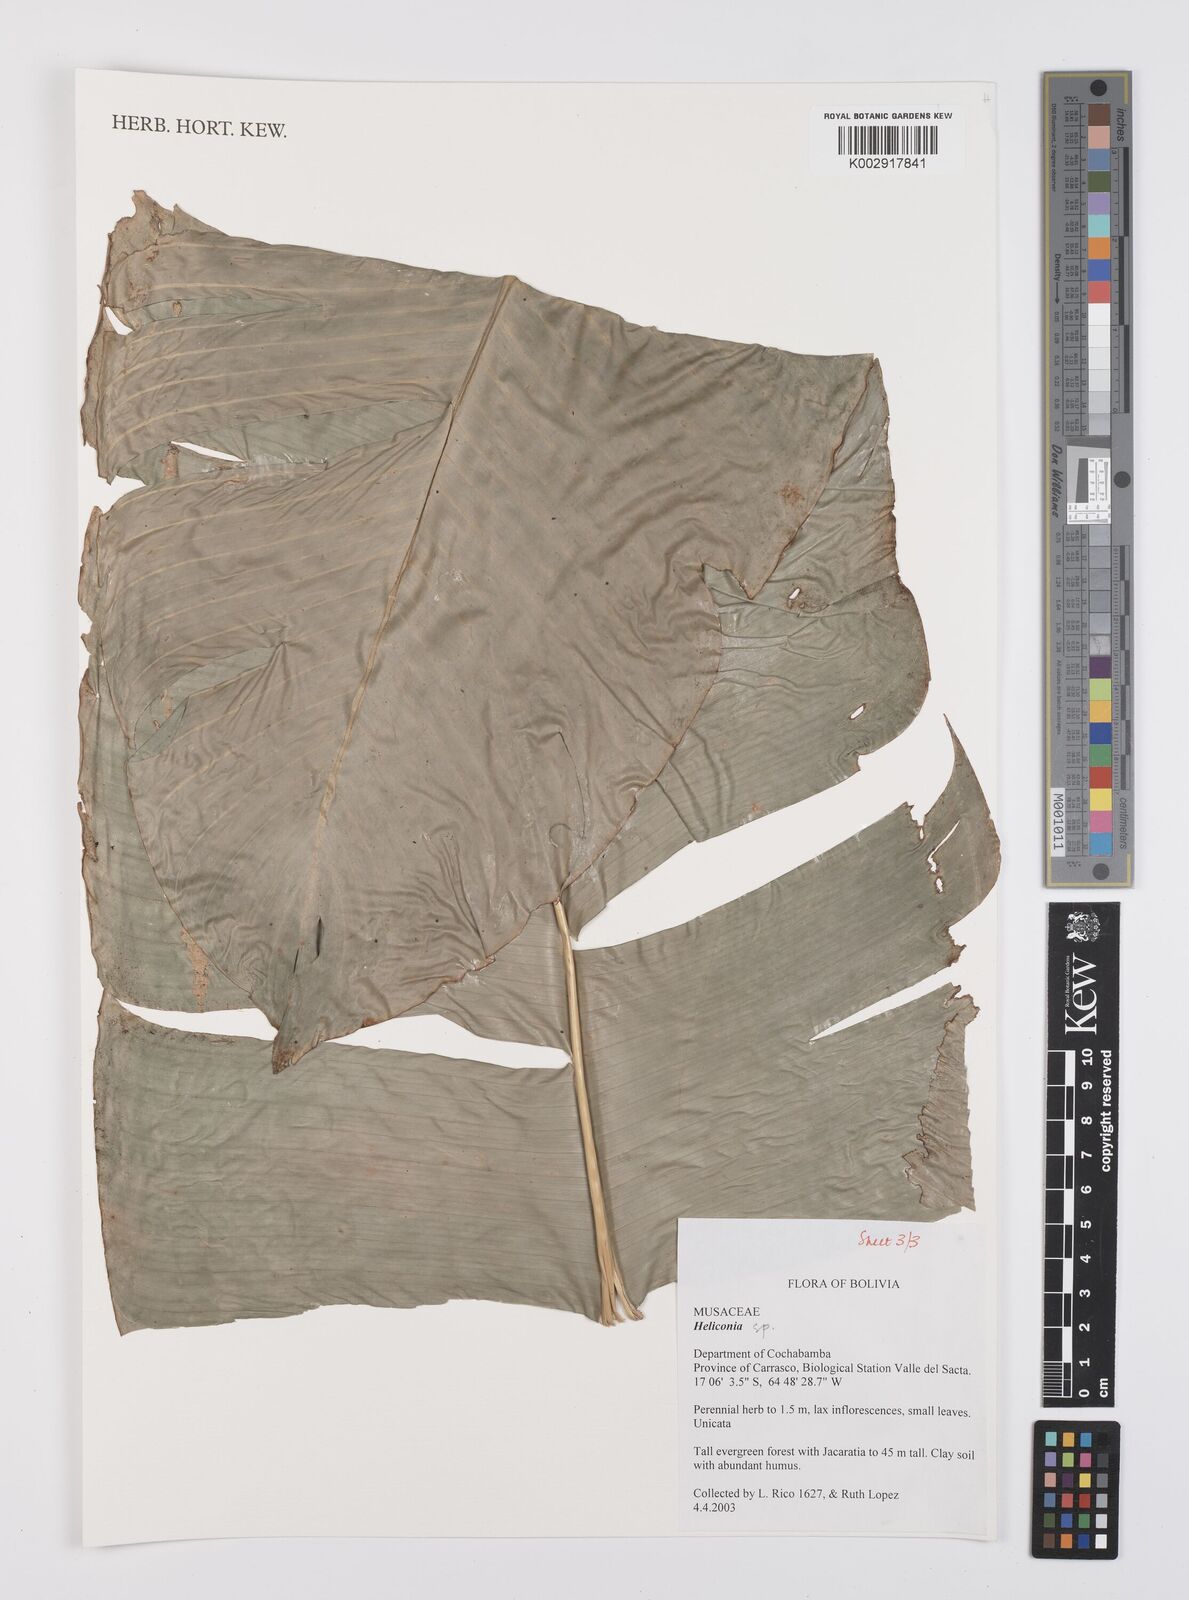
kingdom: Plantae
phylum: Tracheophyta
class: Liliopsida
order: Zingiberales
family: Heliconiaceae
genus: Heliconia
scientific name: Heliconia
